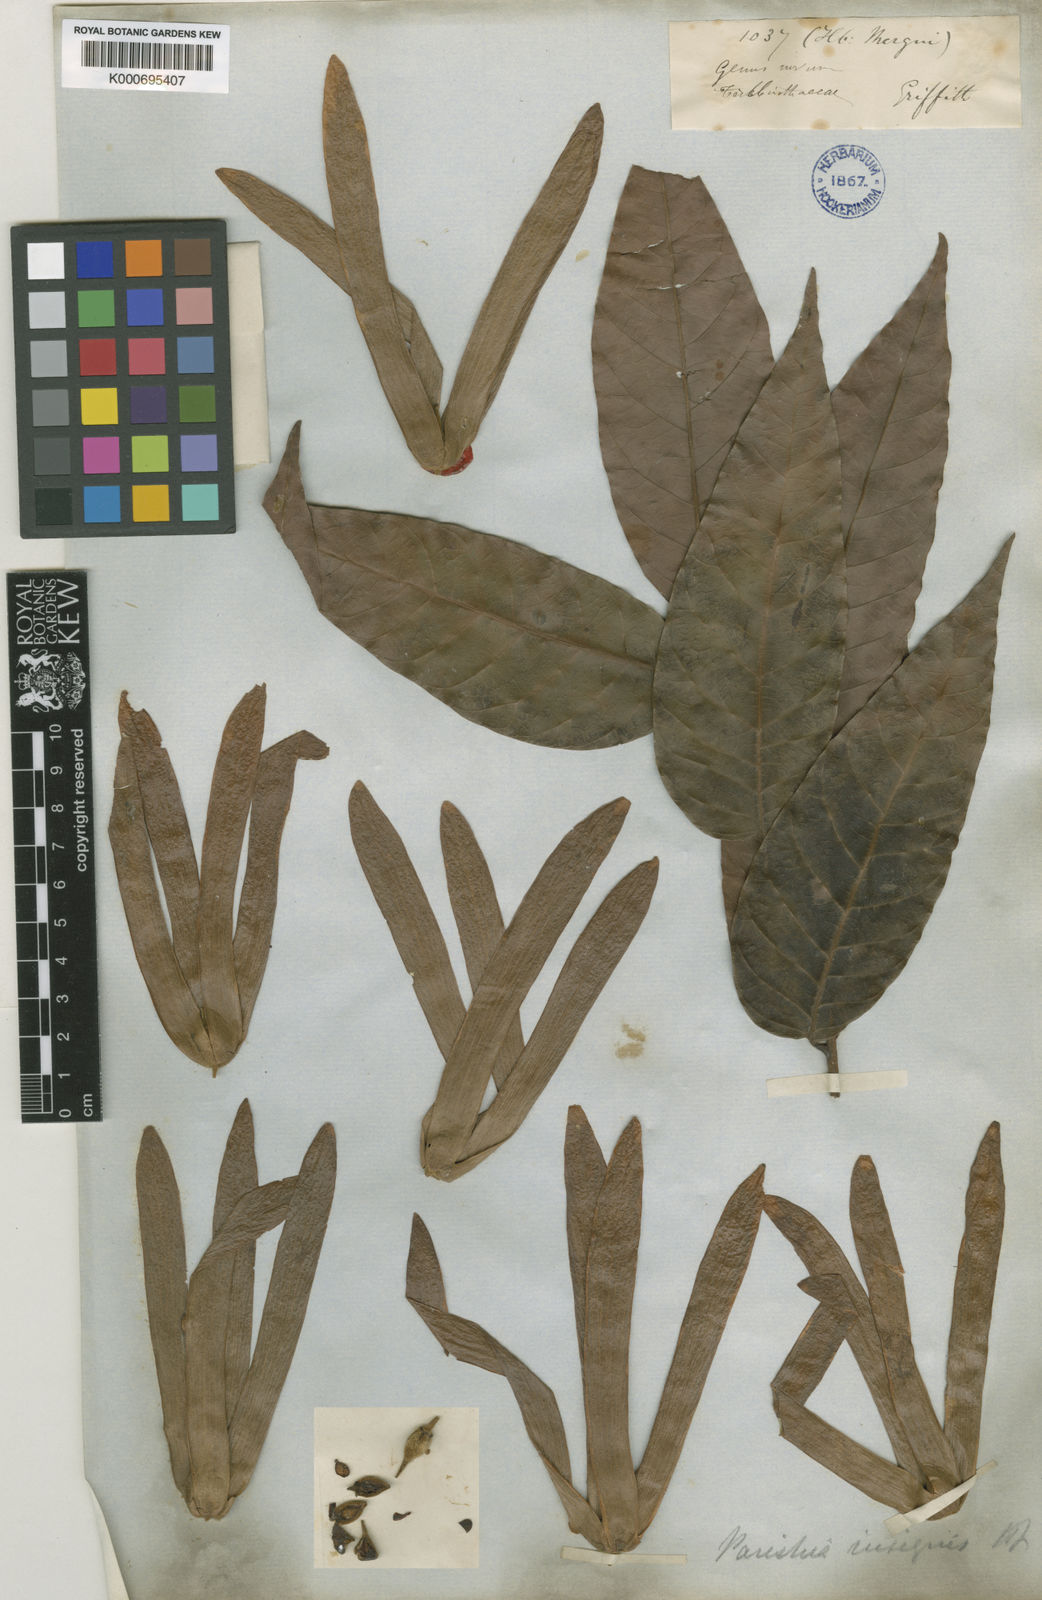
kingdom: Plantae
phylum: Tracheophyta
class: Magnoliopsida
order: Sapindales
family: Anacardiaceae
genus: Parishia
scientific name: Parishia insignis
